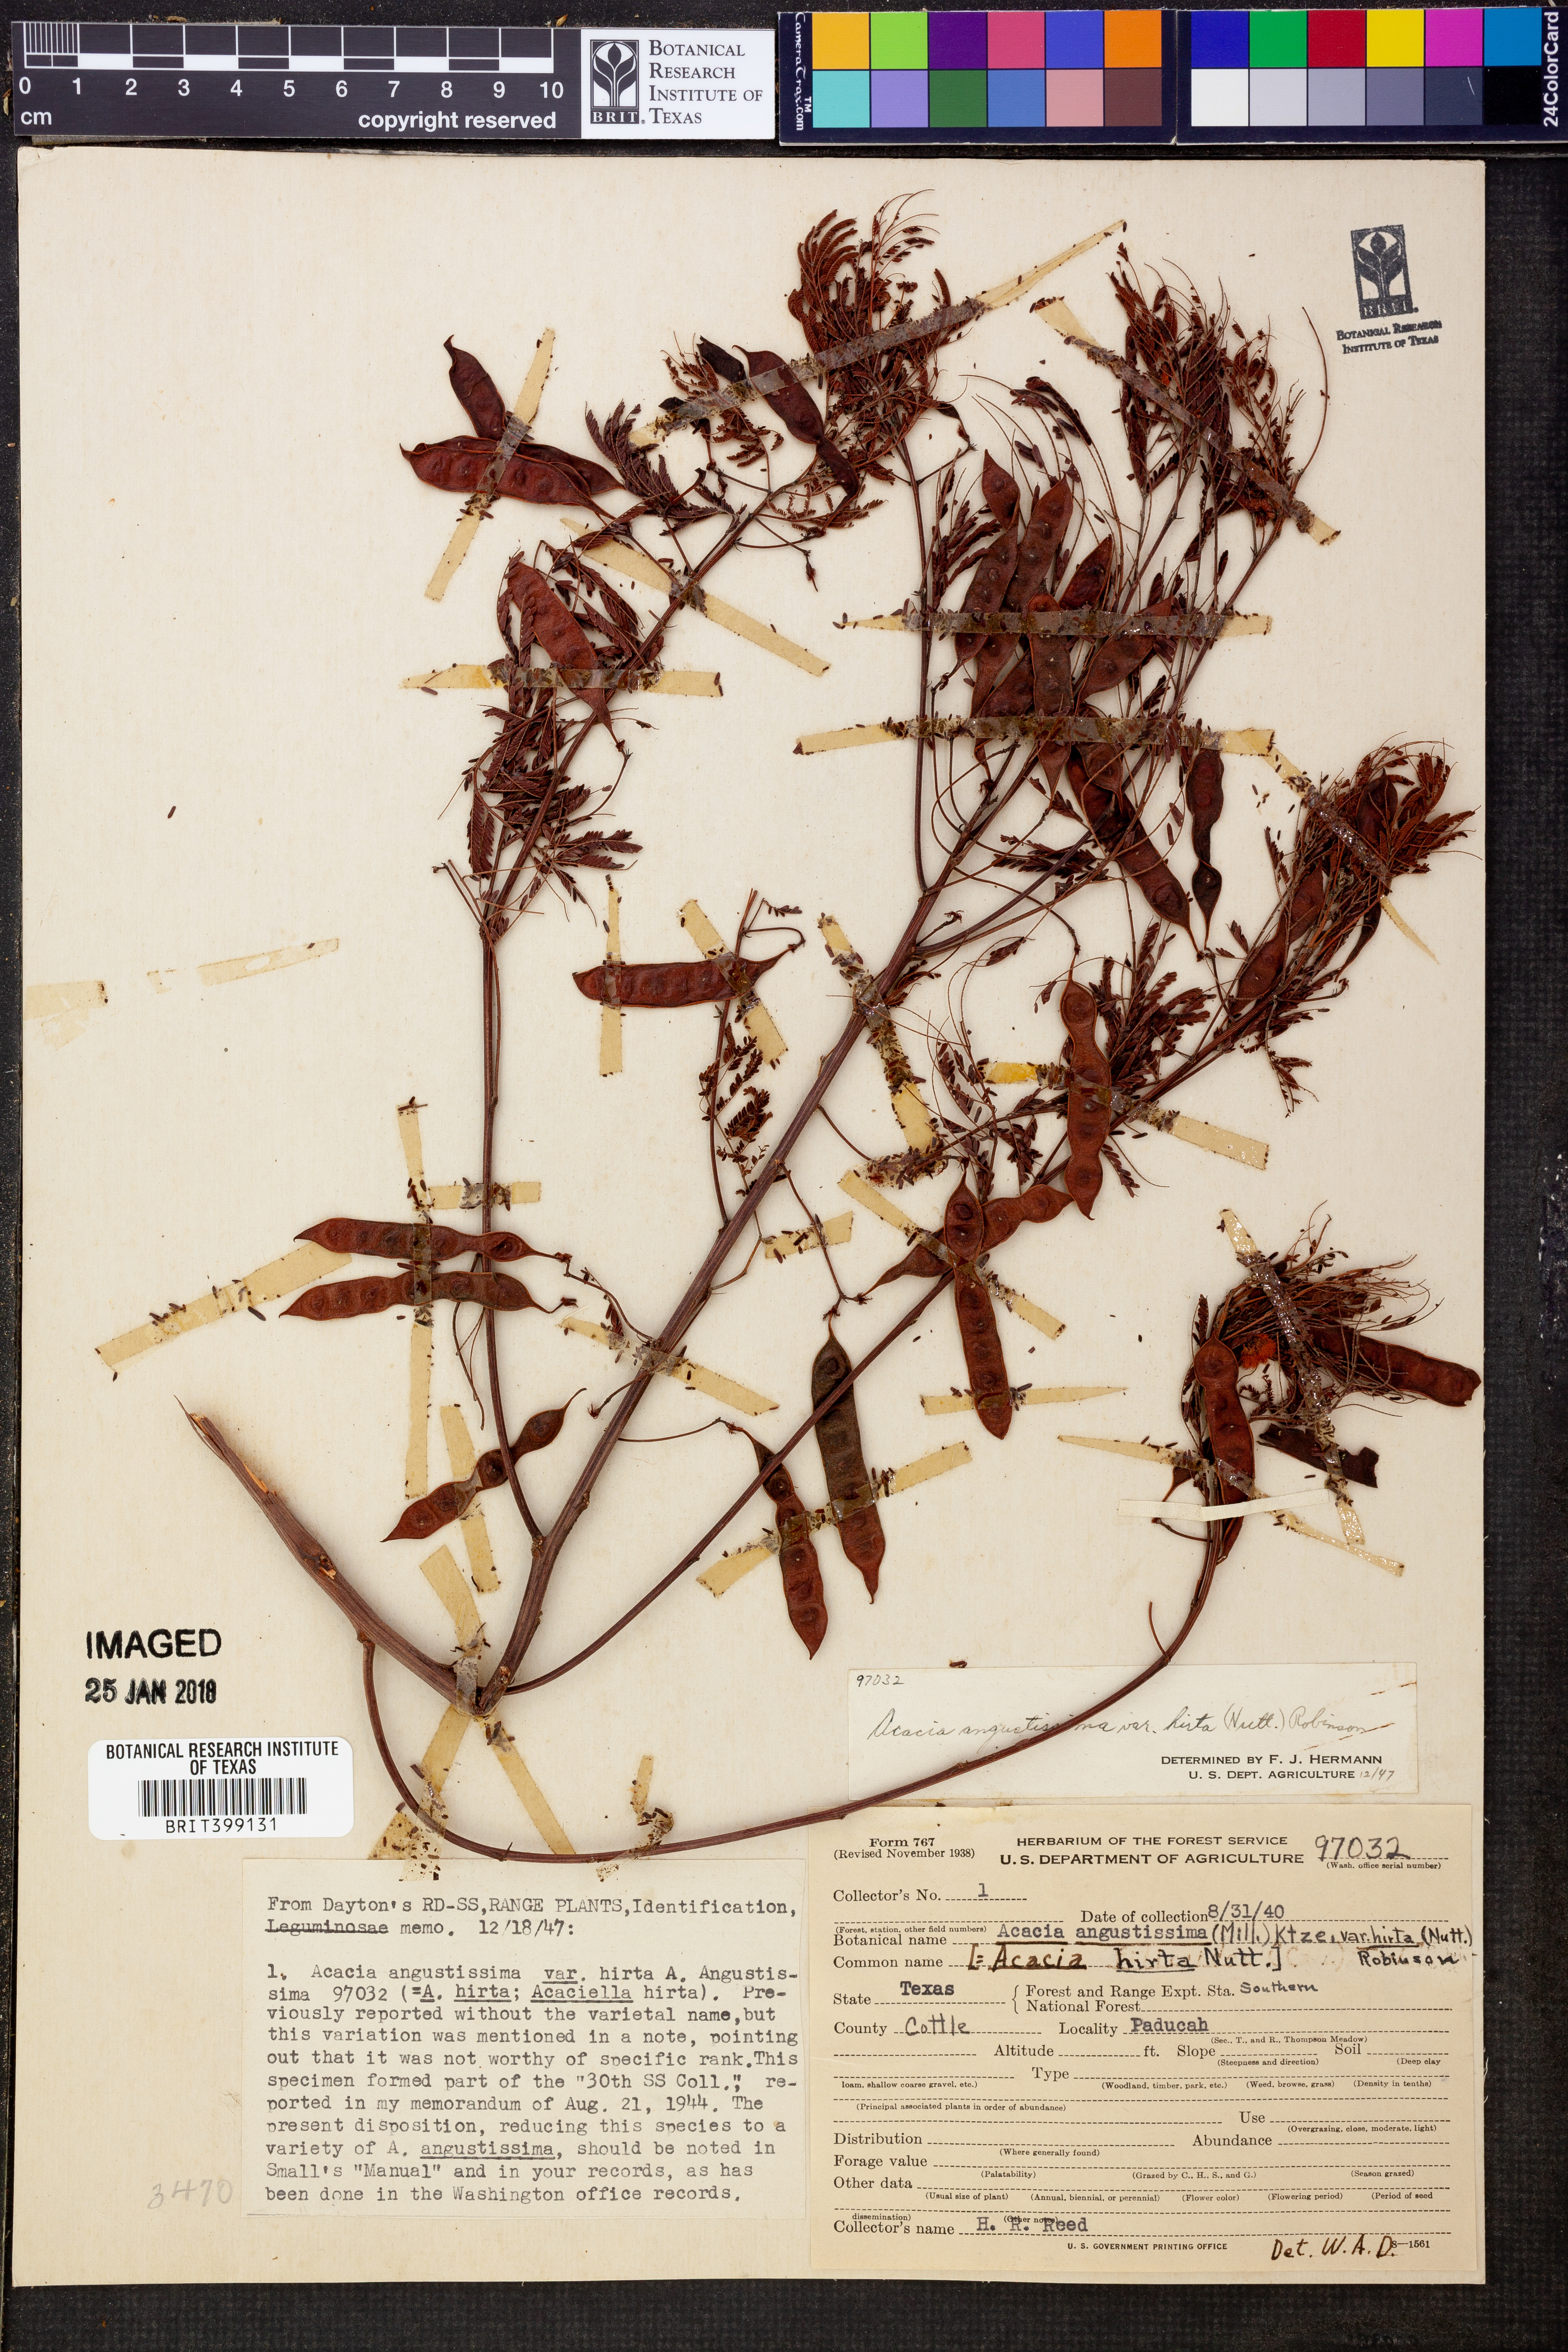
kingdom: Plantae
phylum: Tracheophyta
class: Magnoliopsida
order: Fabales
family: Fabaceae
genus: Acaciella
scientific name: Acaciella angustissima
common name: Prairie acacia
